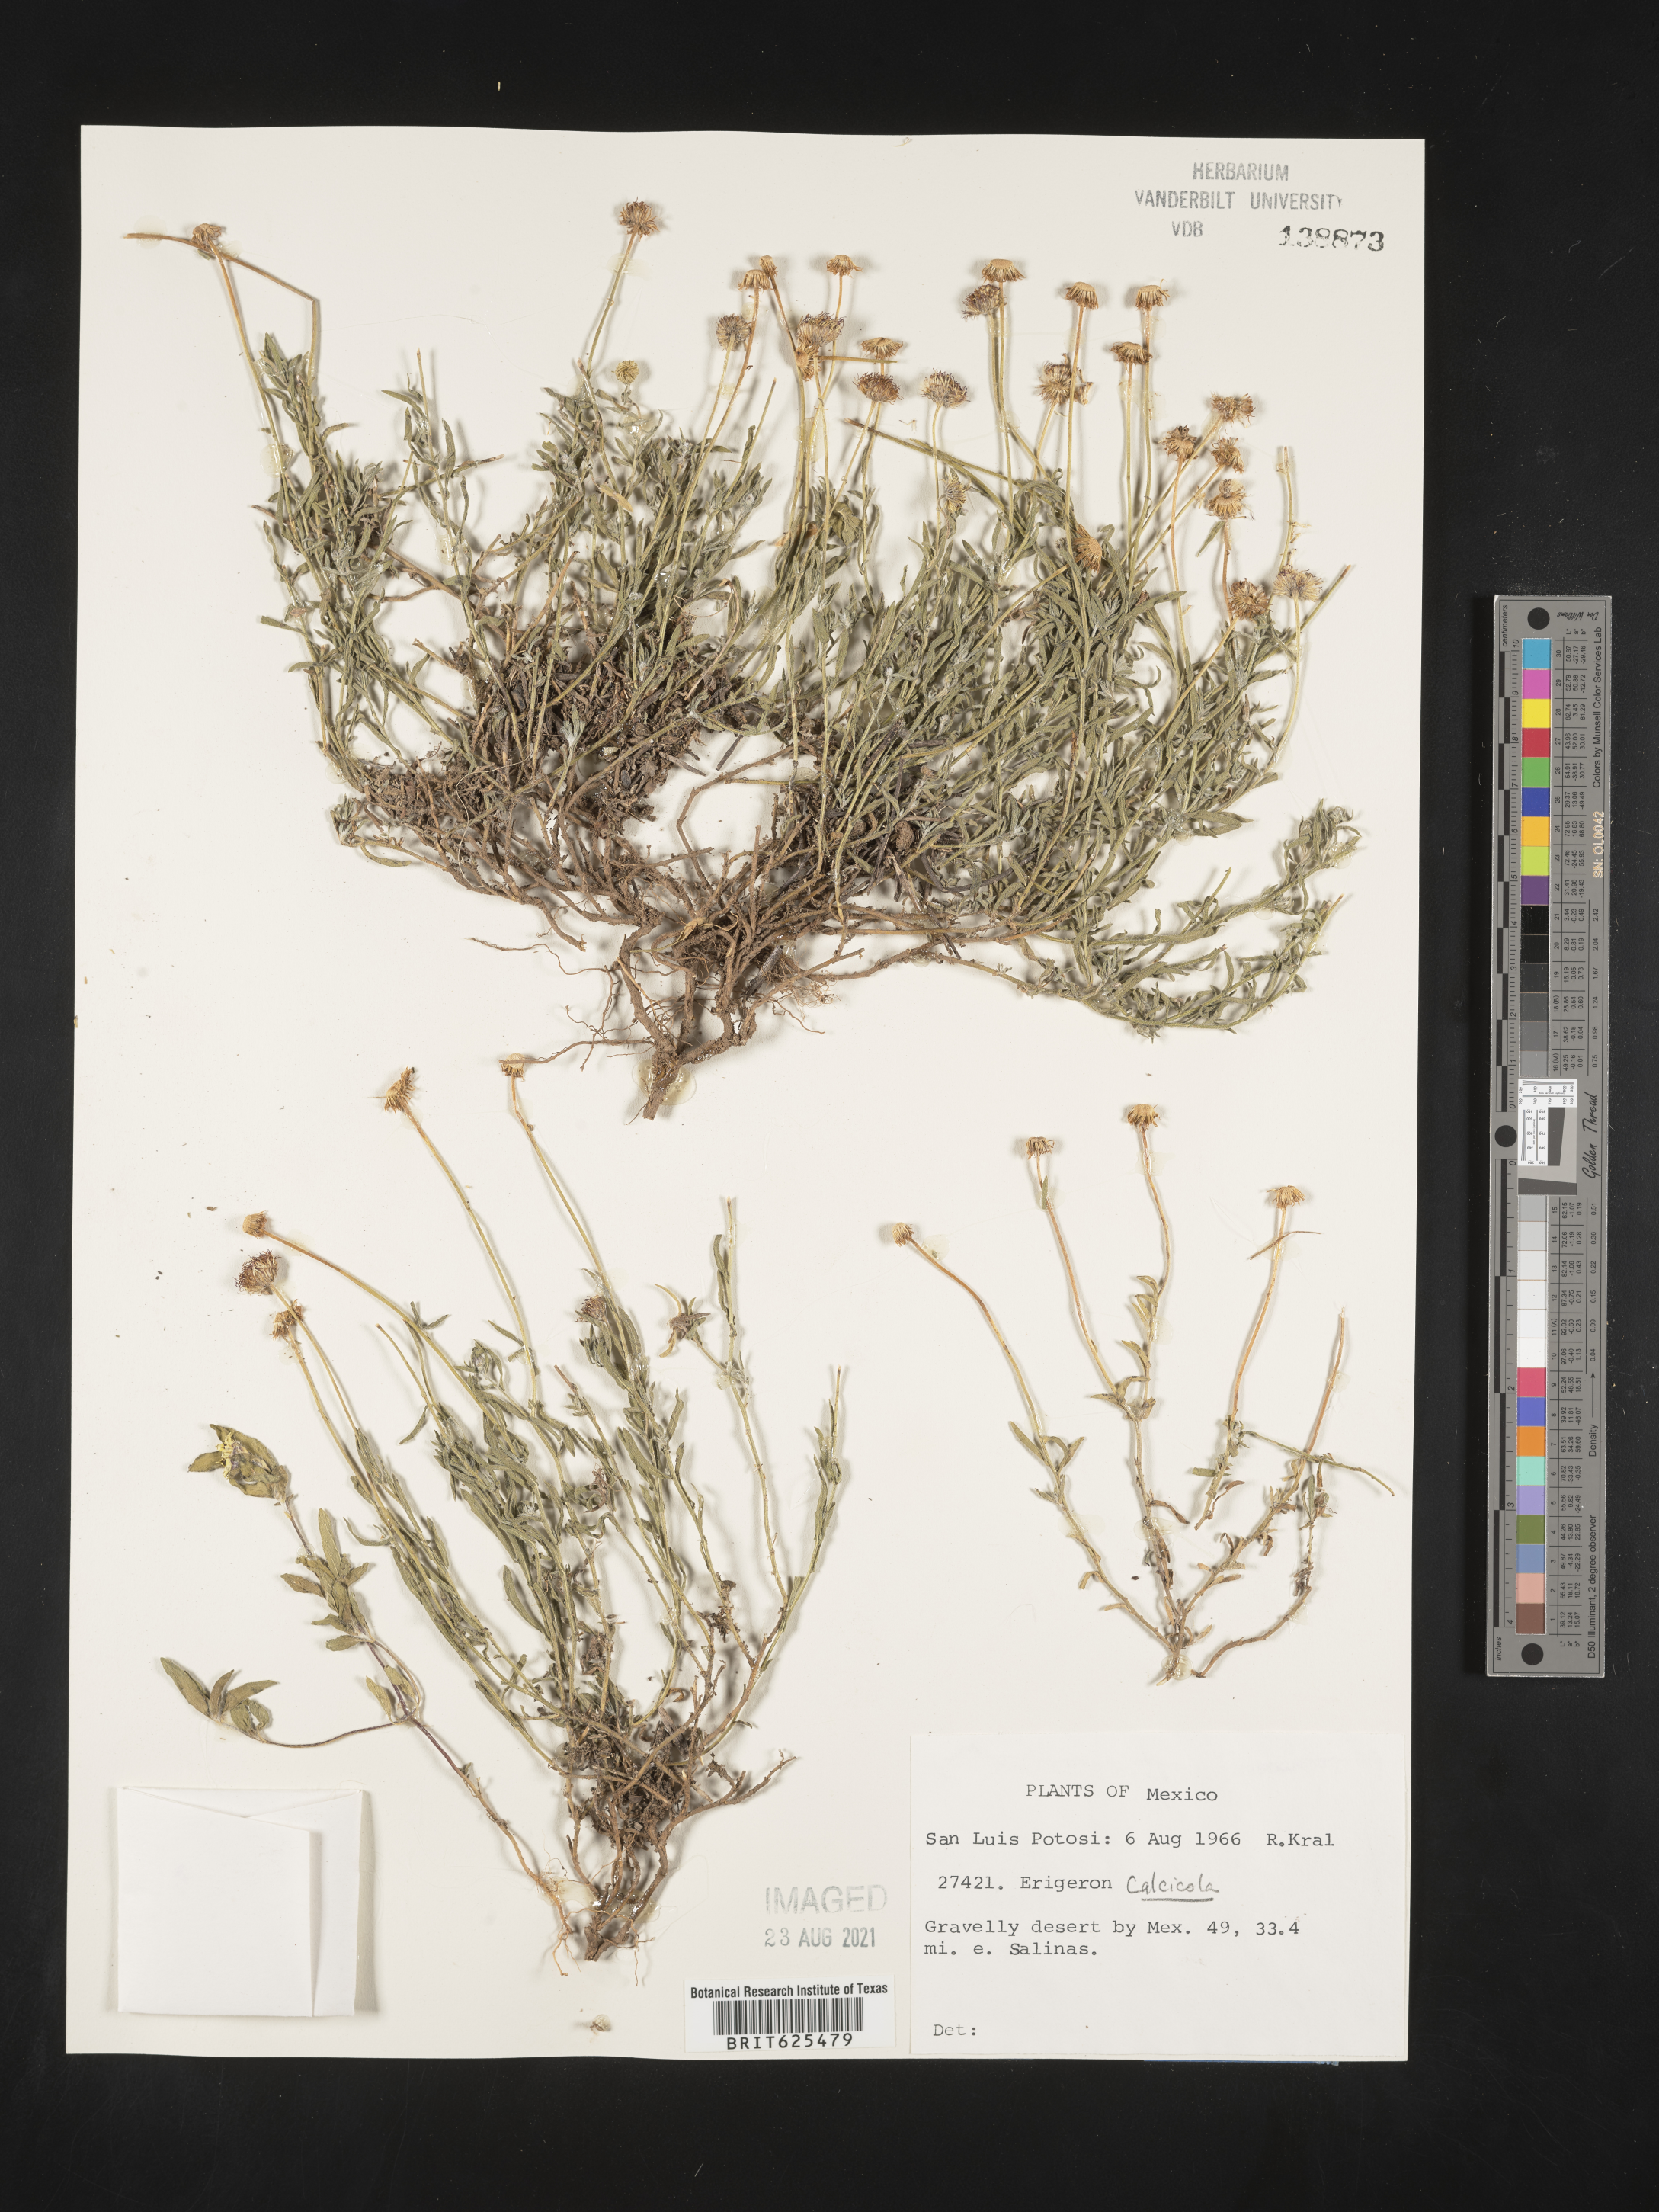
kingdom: Plantae
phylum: Tracheophyta
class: Magnoliopsida
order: Asterales
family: Asteraceae
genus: Erigeron
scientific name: Erigeron
